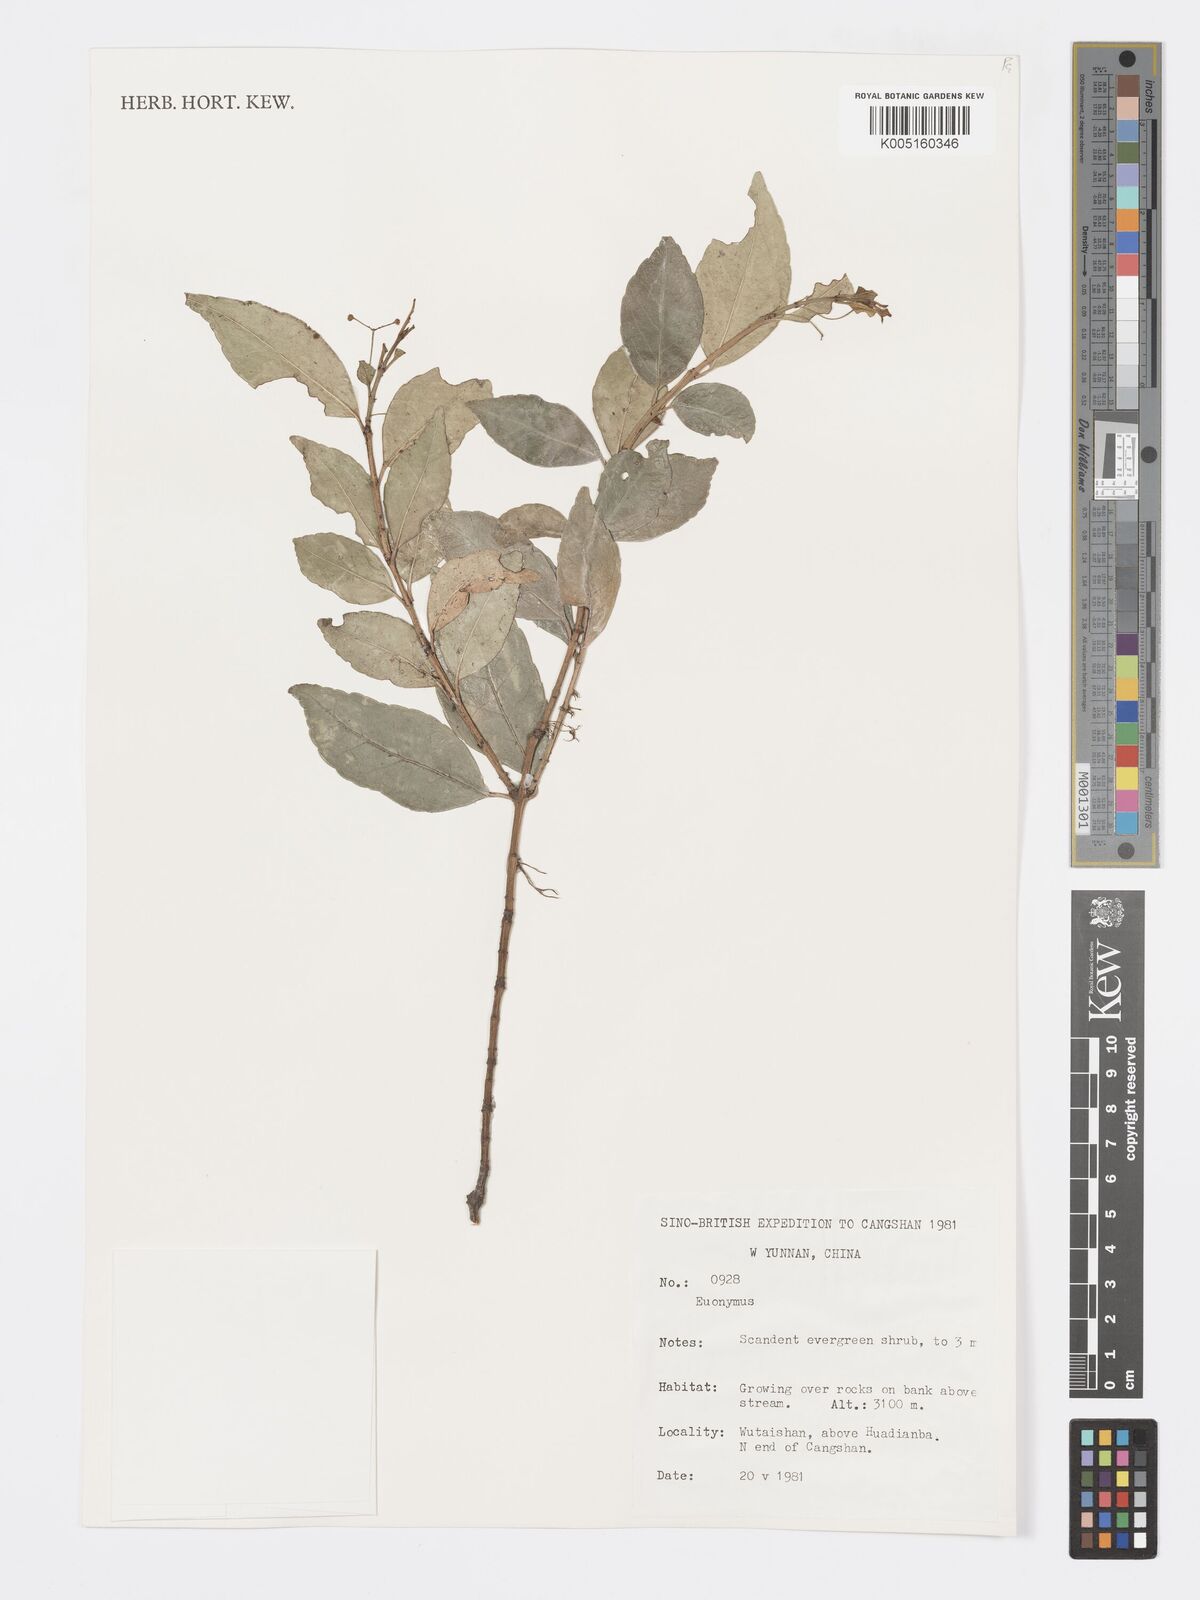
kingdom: Plantae
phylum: Tracheophyta
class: Magnoliopsida
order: Celastrales
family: Celastraceae
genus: Euonymus
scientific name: Euonymus
